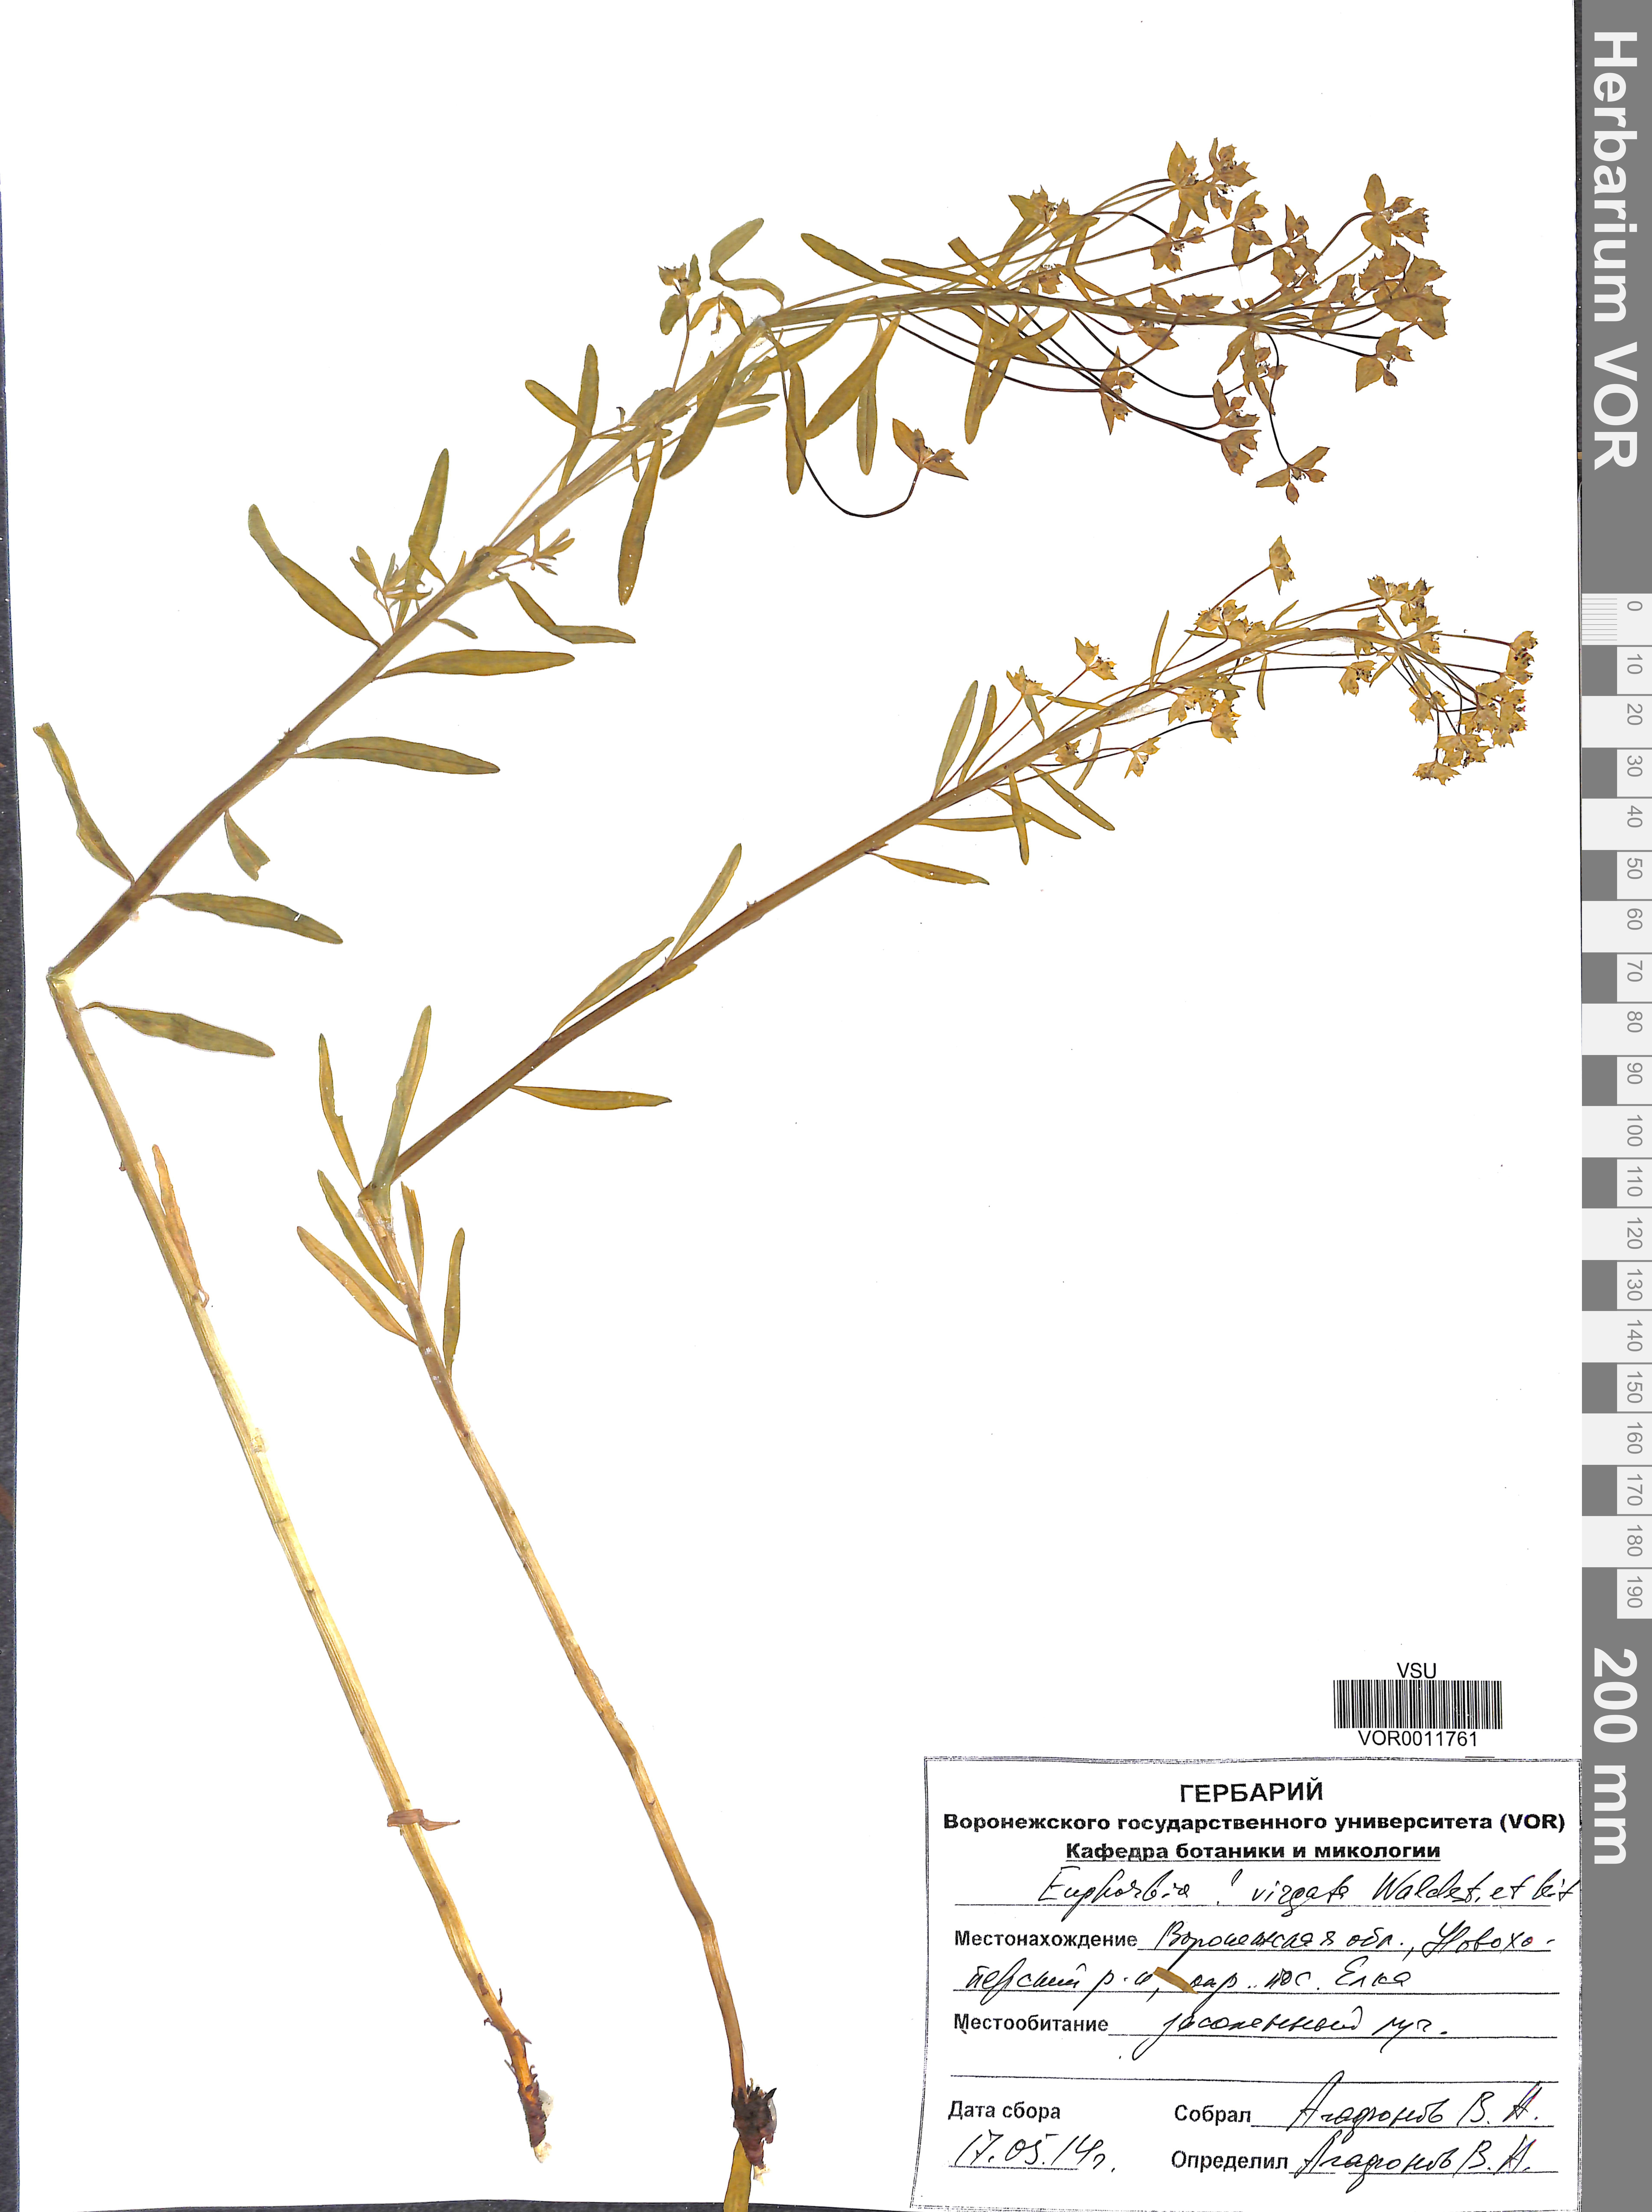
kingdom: Plantae
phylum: Tracheophyta
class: Magnoliopsida
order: Malpighiales
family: Euphorbiaceae
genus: Euphorbia
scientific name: Euphorbia virgata
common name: Leafy spurge
